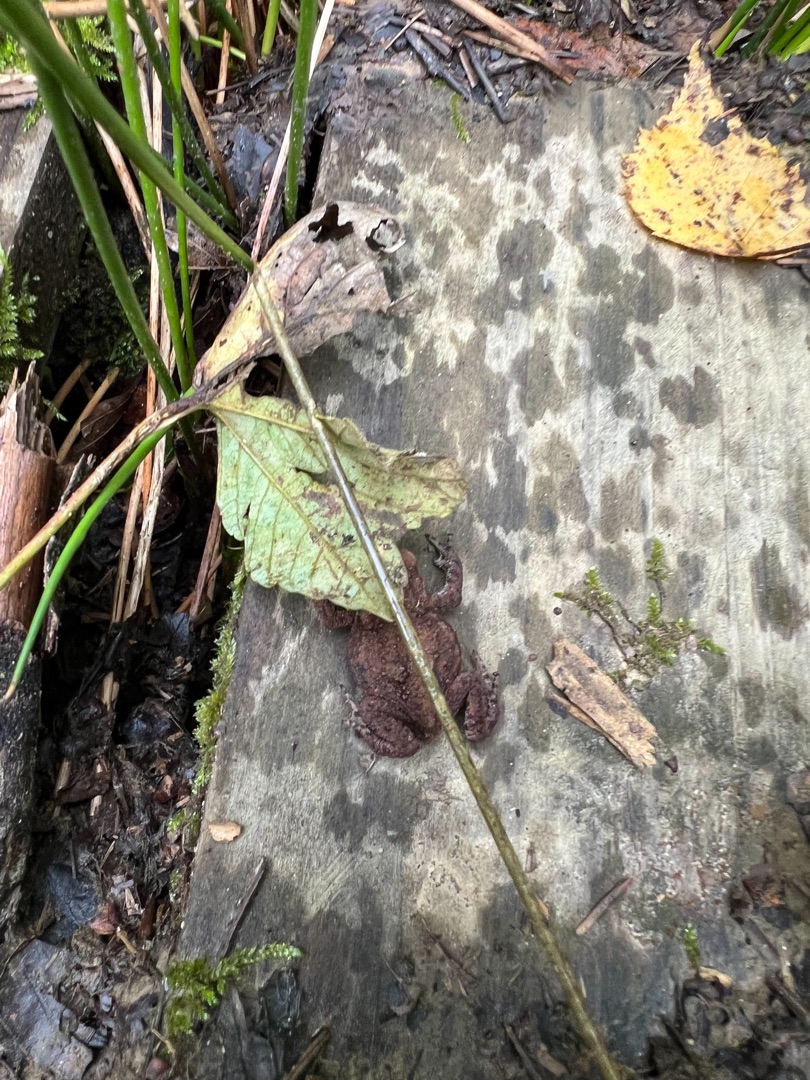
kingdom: Animalia
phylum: Chordata
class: Amphibia
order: Anura
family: Bufonidae
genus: Bufo
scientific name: Bufo bufo
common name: Skrubtudse
